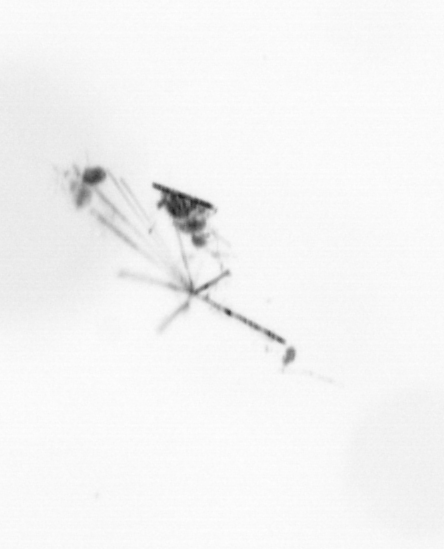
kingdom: Chromista
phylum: Ochrophyta
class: Bacillariophyceae
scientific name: Bacillariophyceae
